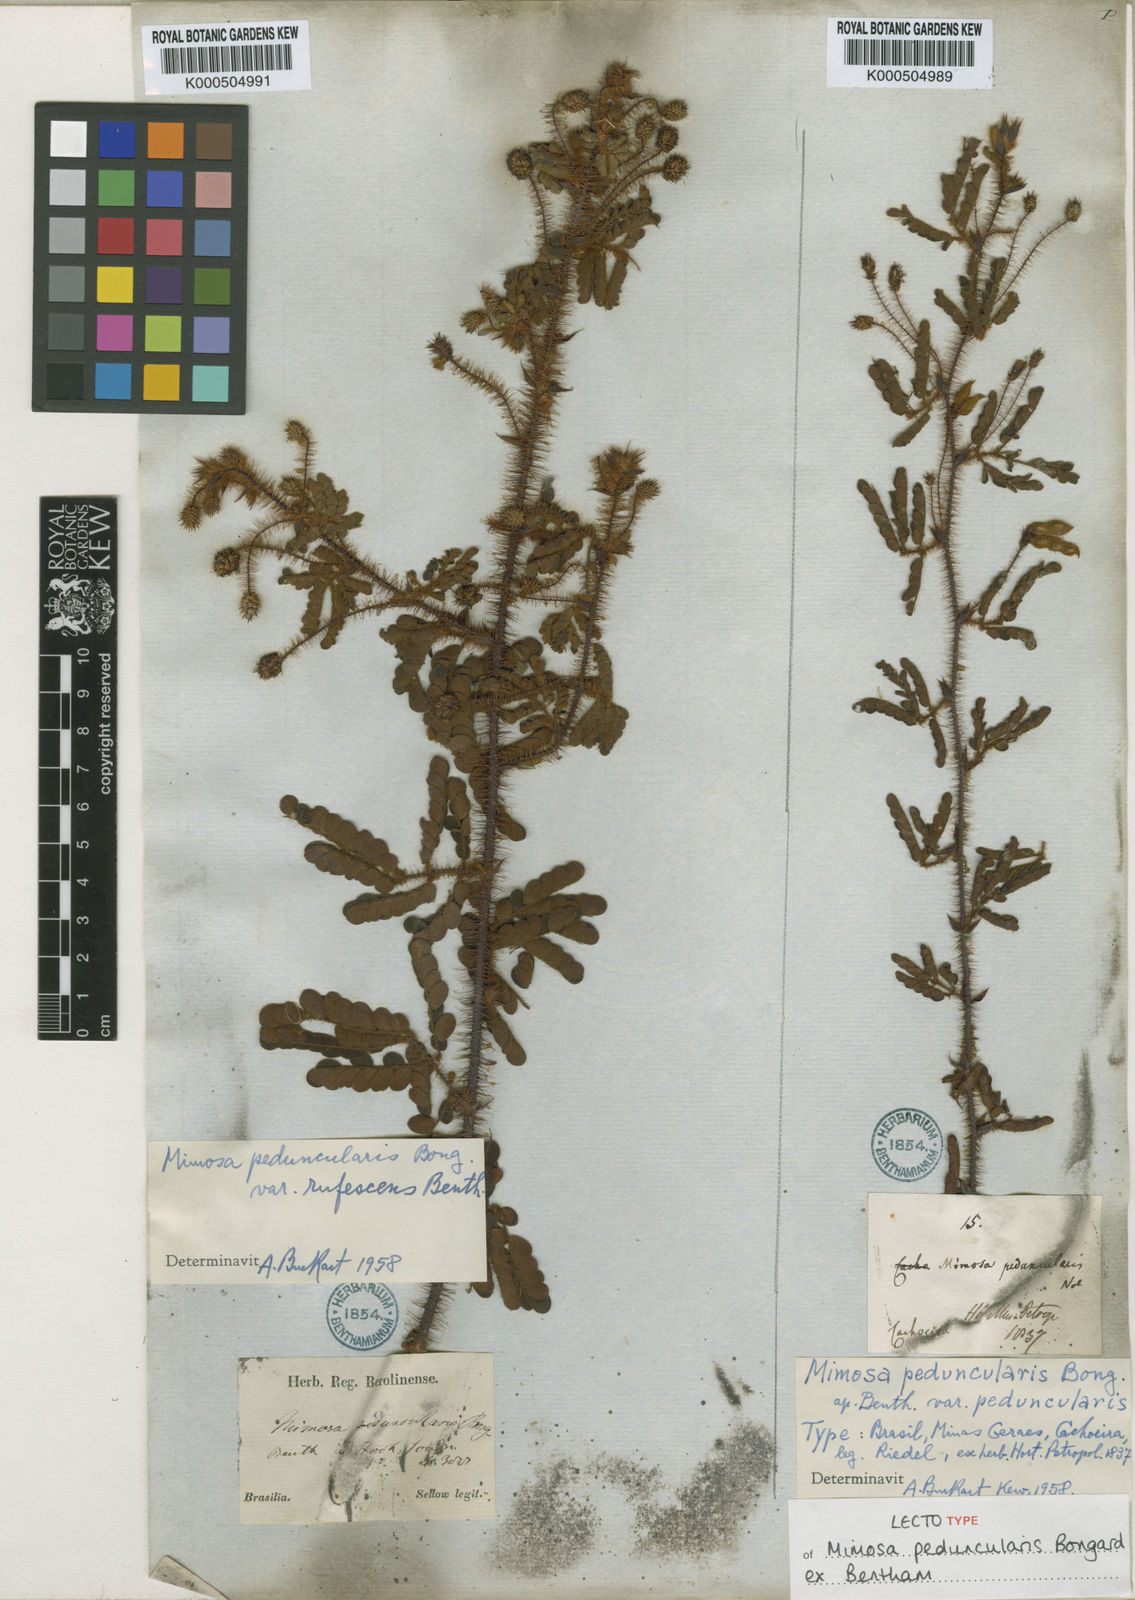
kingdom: Plantae
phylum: Tracheophyta
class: Magnoliopsida
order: Fabales
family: Fabaceae
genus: Mimosa
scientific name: Mimosa peduncularis
